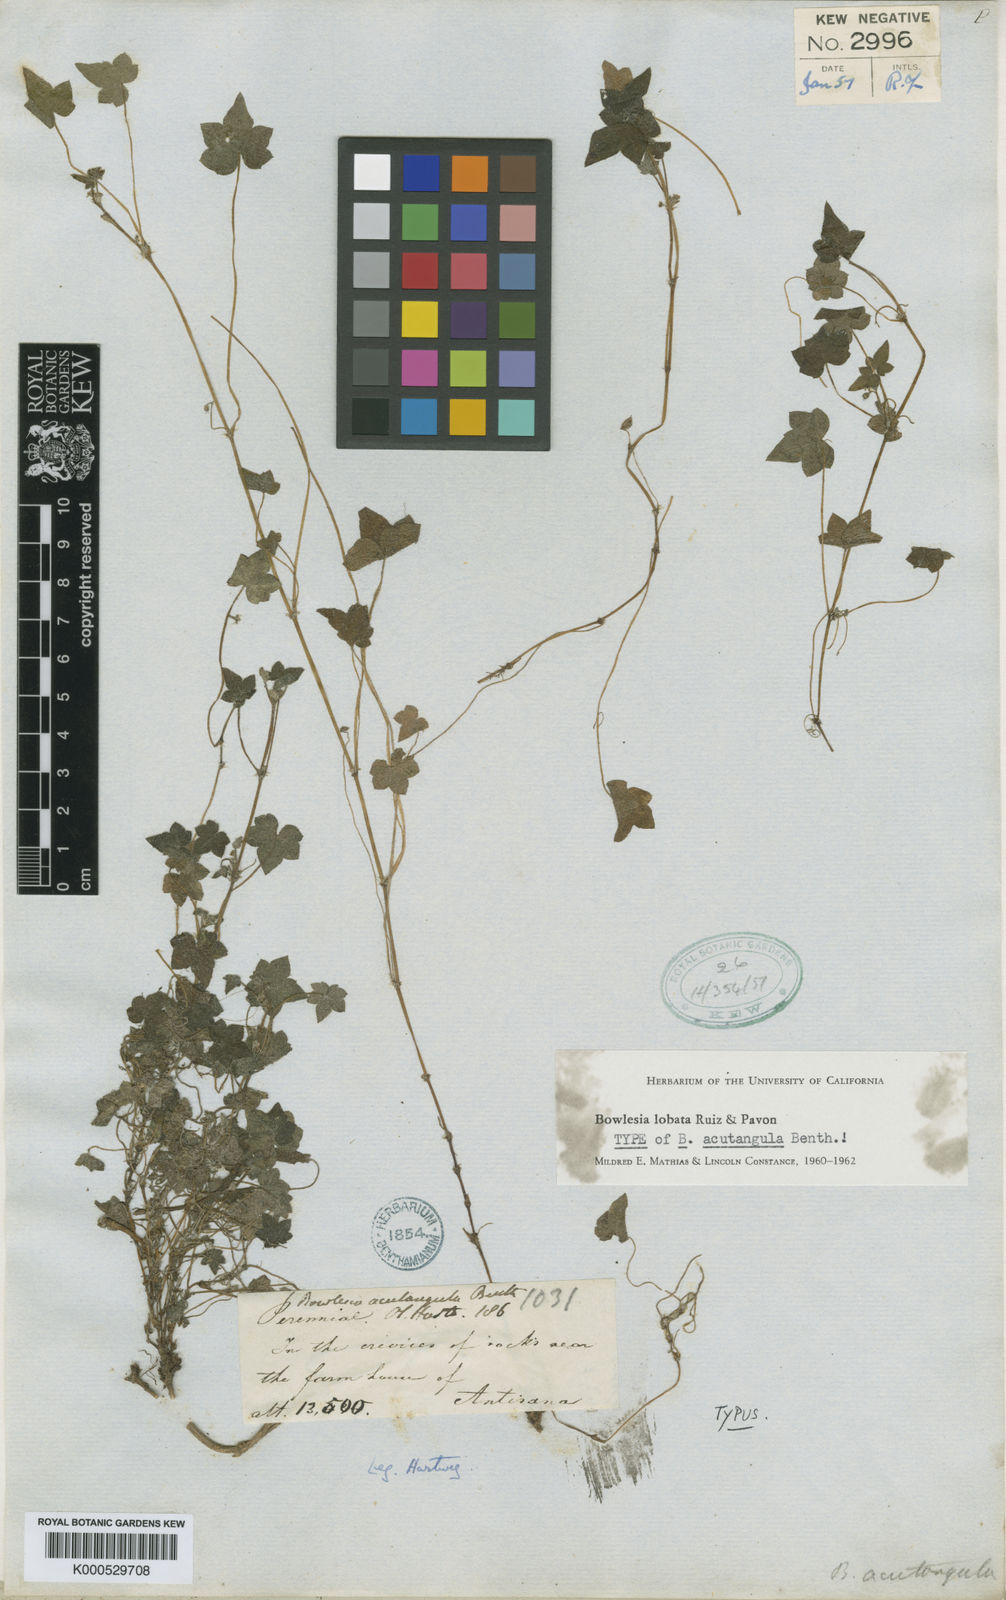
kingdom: Plantae
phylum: Tracheophyta
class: Magnoliopsida
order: Apiales
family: Apiaceae
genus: Bowlesia
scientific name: Bowlesia lobata
